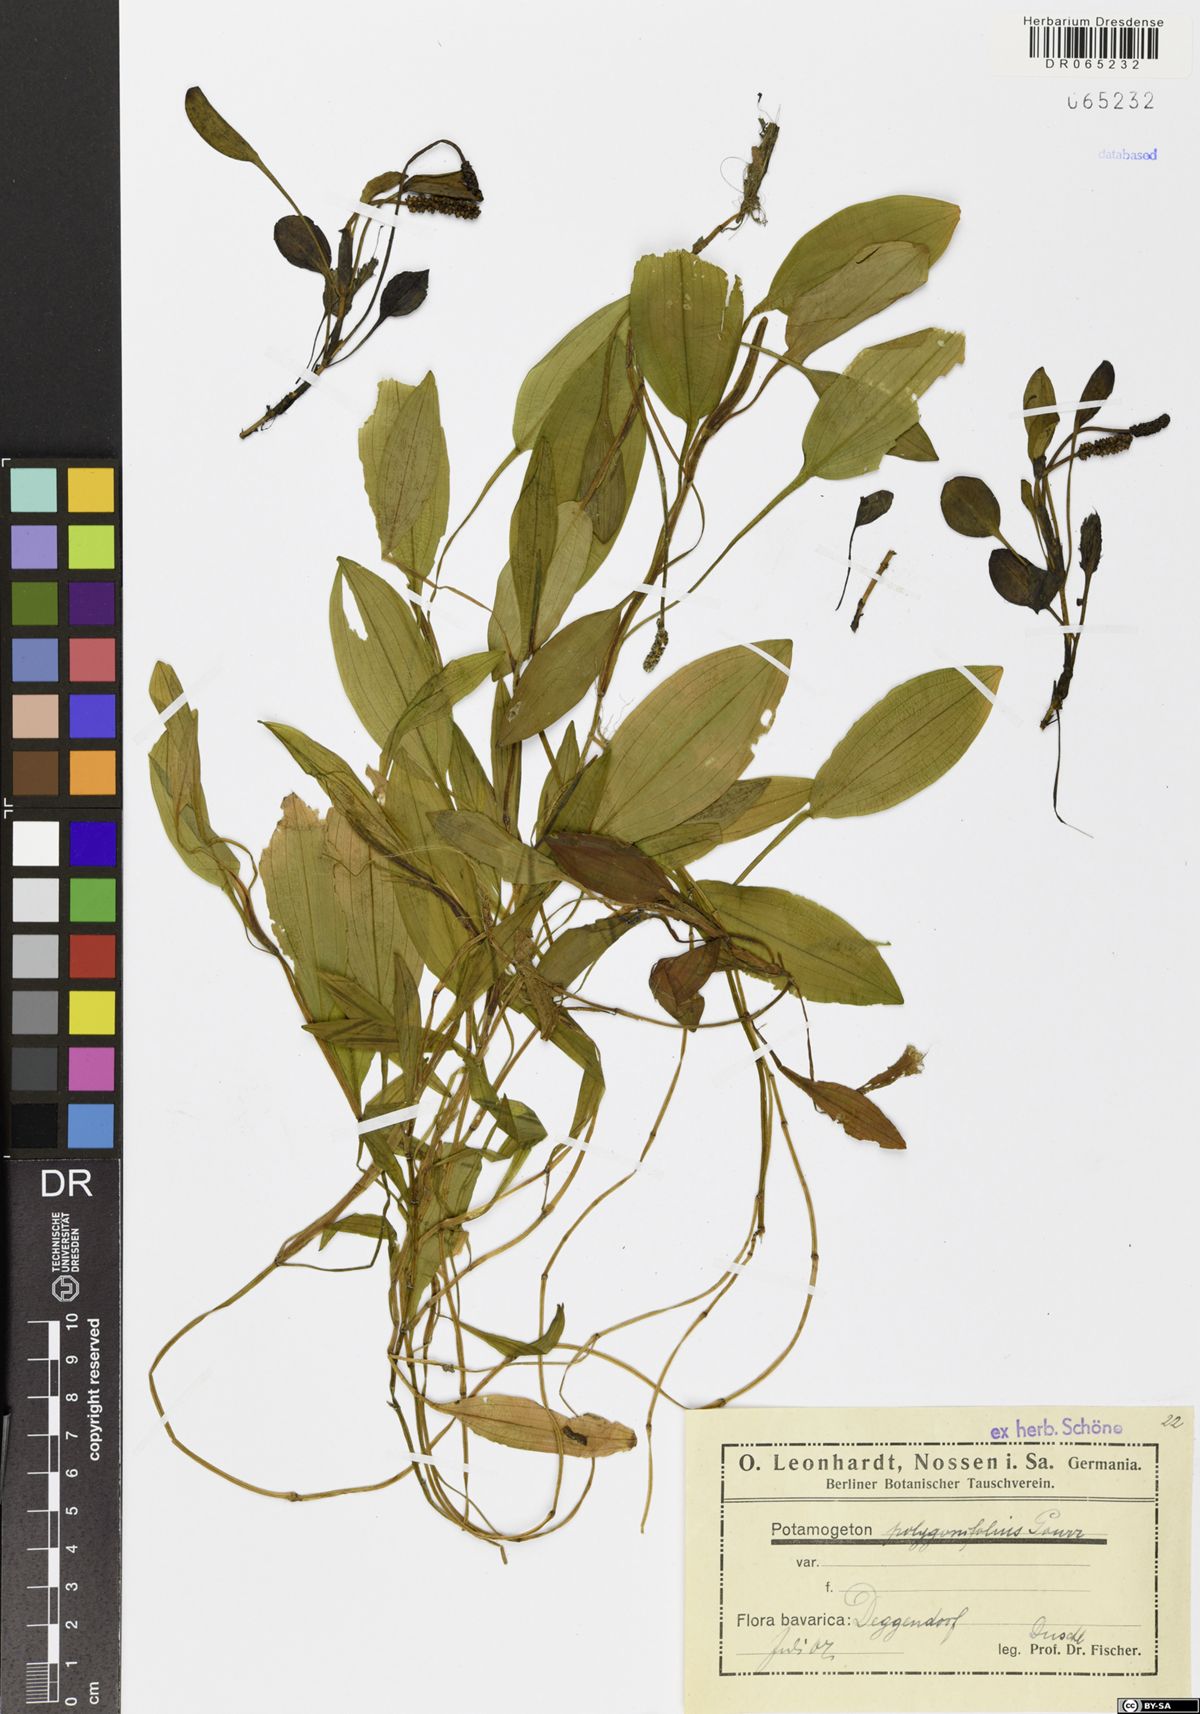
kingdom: Plantae
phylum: Tracheophyta
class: Liliopsida
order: Alismatales
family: Potamogetonaceae
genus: Potamogeton
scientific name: Potamogeton polygonifolius
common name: Bog pondweed
